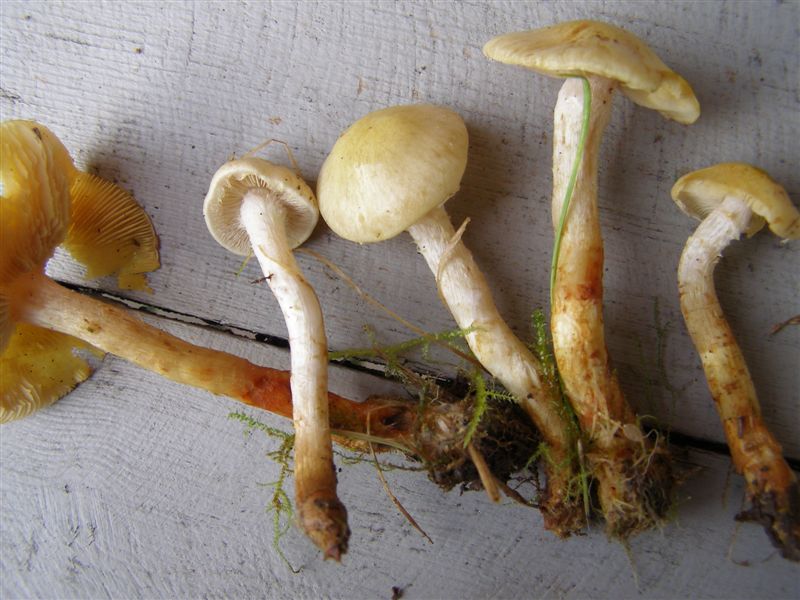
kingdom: Fungi
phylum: Basidiomycota
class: Agaricomycetes
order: Agaricales
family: Strophariaceae
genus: Pholiota
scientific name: Pholiota gummosa
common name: grøngul skælhat
